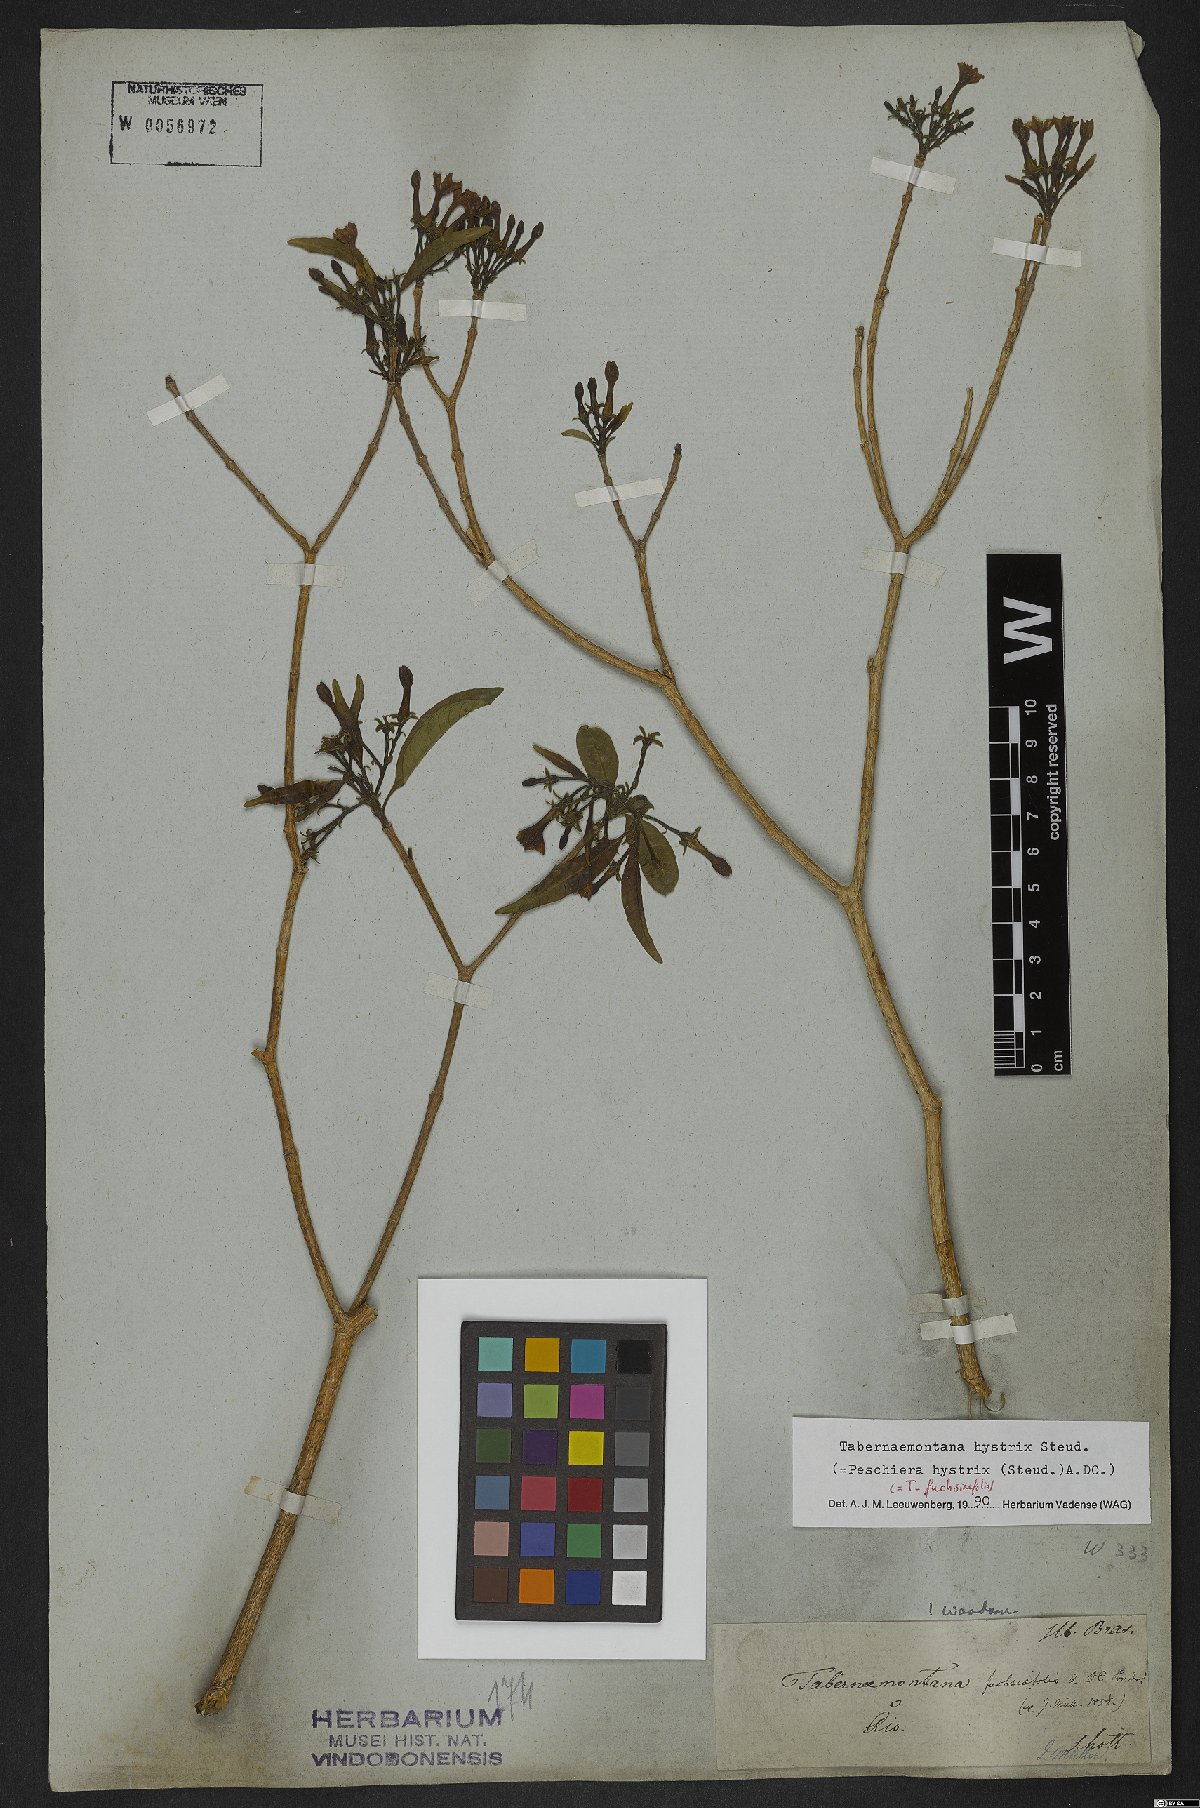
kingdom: Plantae
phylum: Tracheophyta
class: Magnoliopsida
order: Gentianales
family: Apocynaceae
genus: Tabernaemontana
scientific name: Tabernaemontana hystrix
